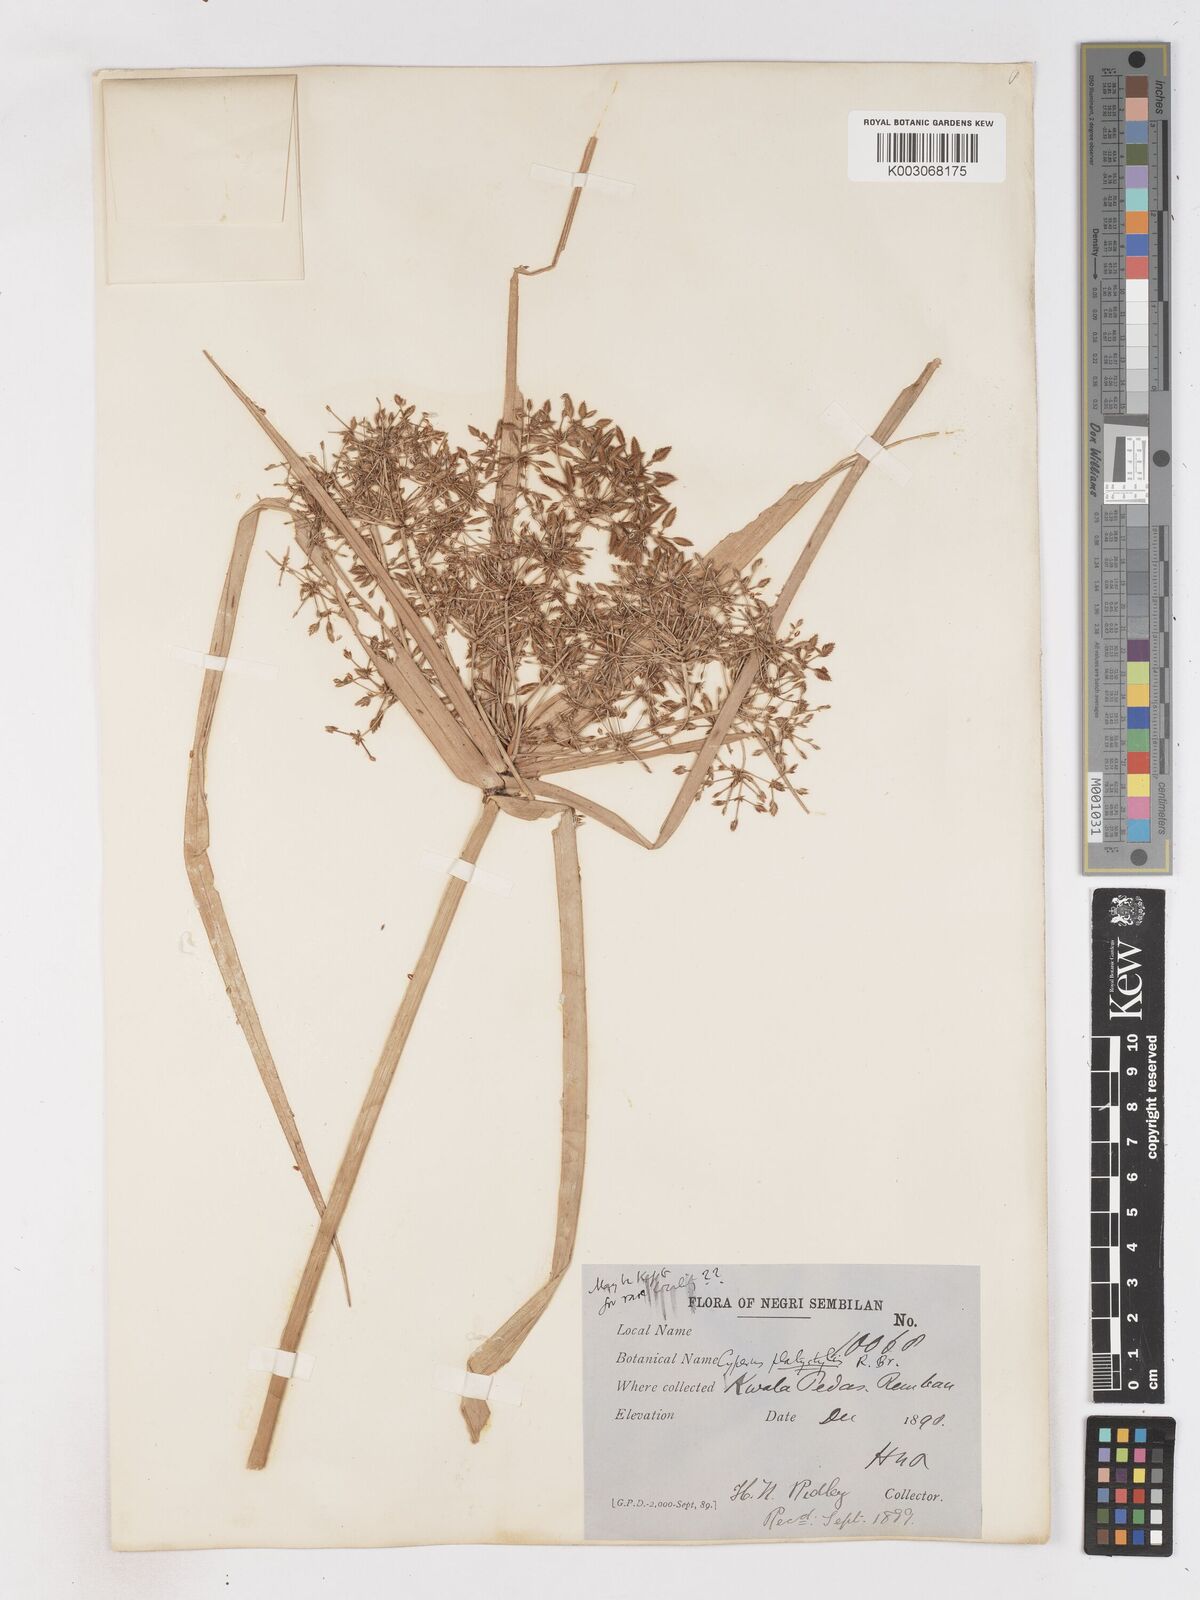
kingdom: Plantae
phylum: Tracheophyta
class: Liliopsida
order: Poales
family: Cyperaceae
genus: Cyperus
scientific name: Cyperus platystylis
